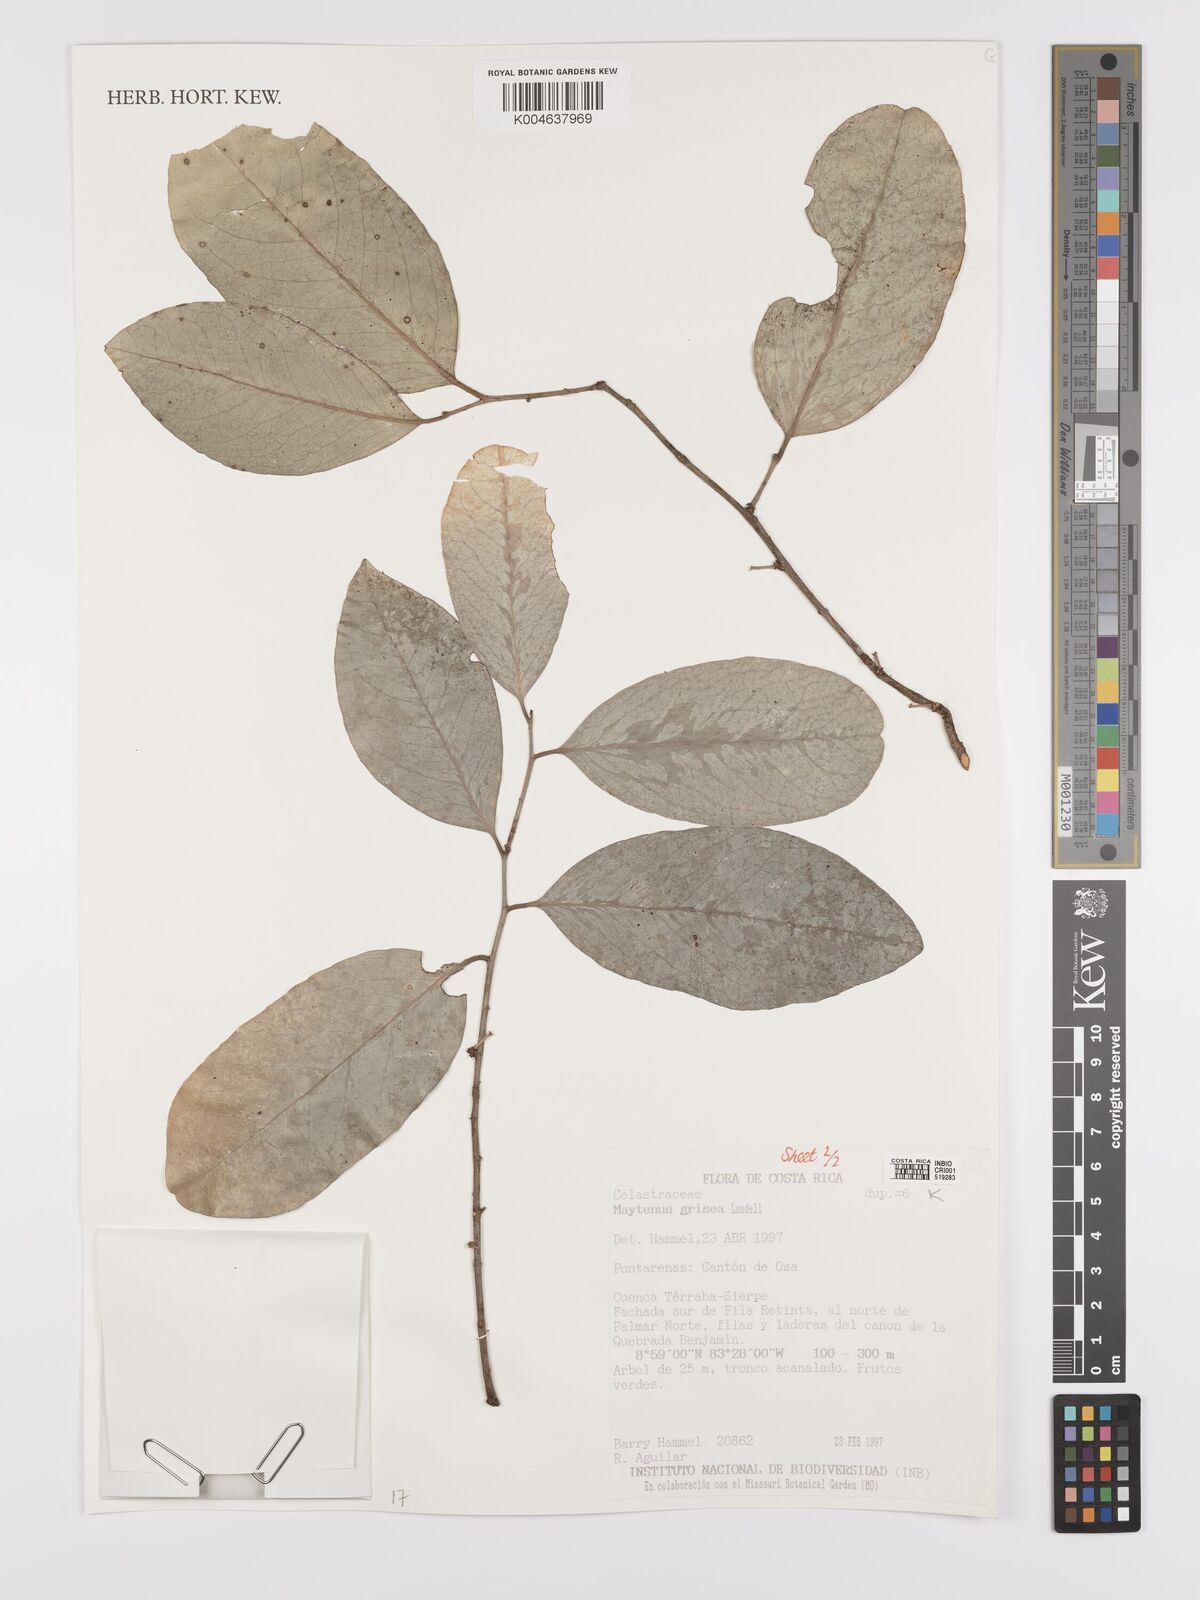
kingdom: Plantae
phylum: Tracheophyta
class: Magnoliopsida
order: Celastrales
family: Celastraceae
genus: Maytenus
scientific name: Maytenus grisea
